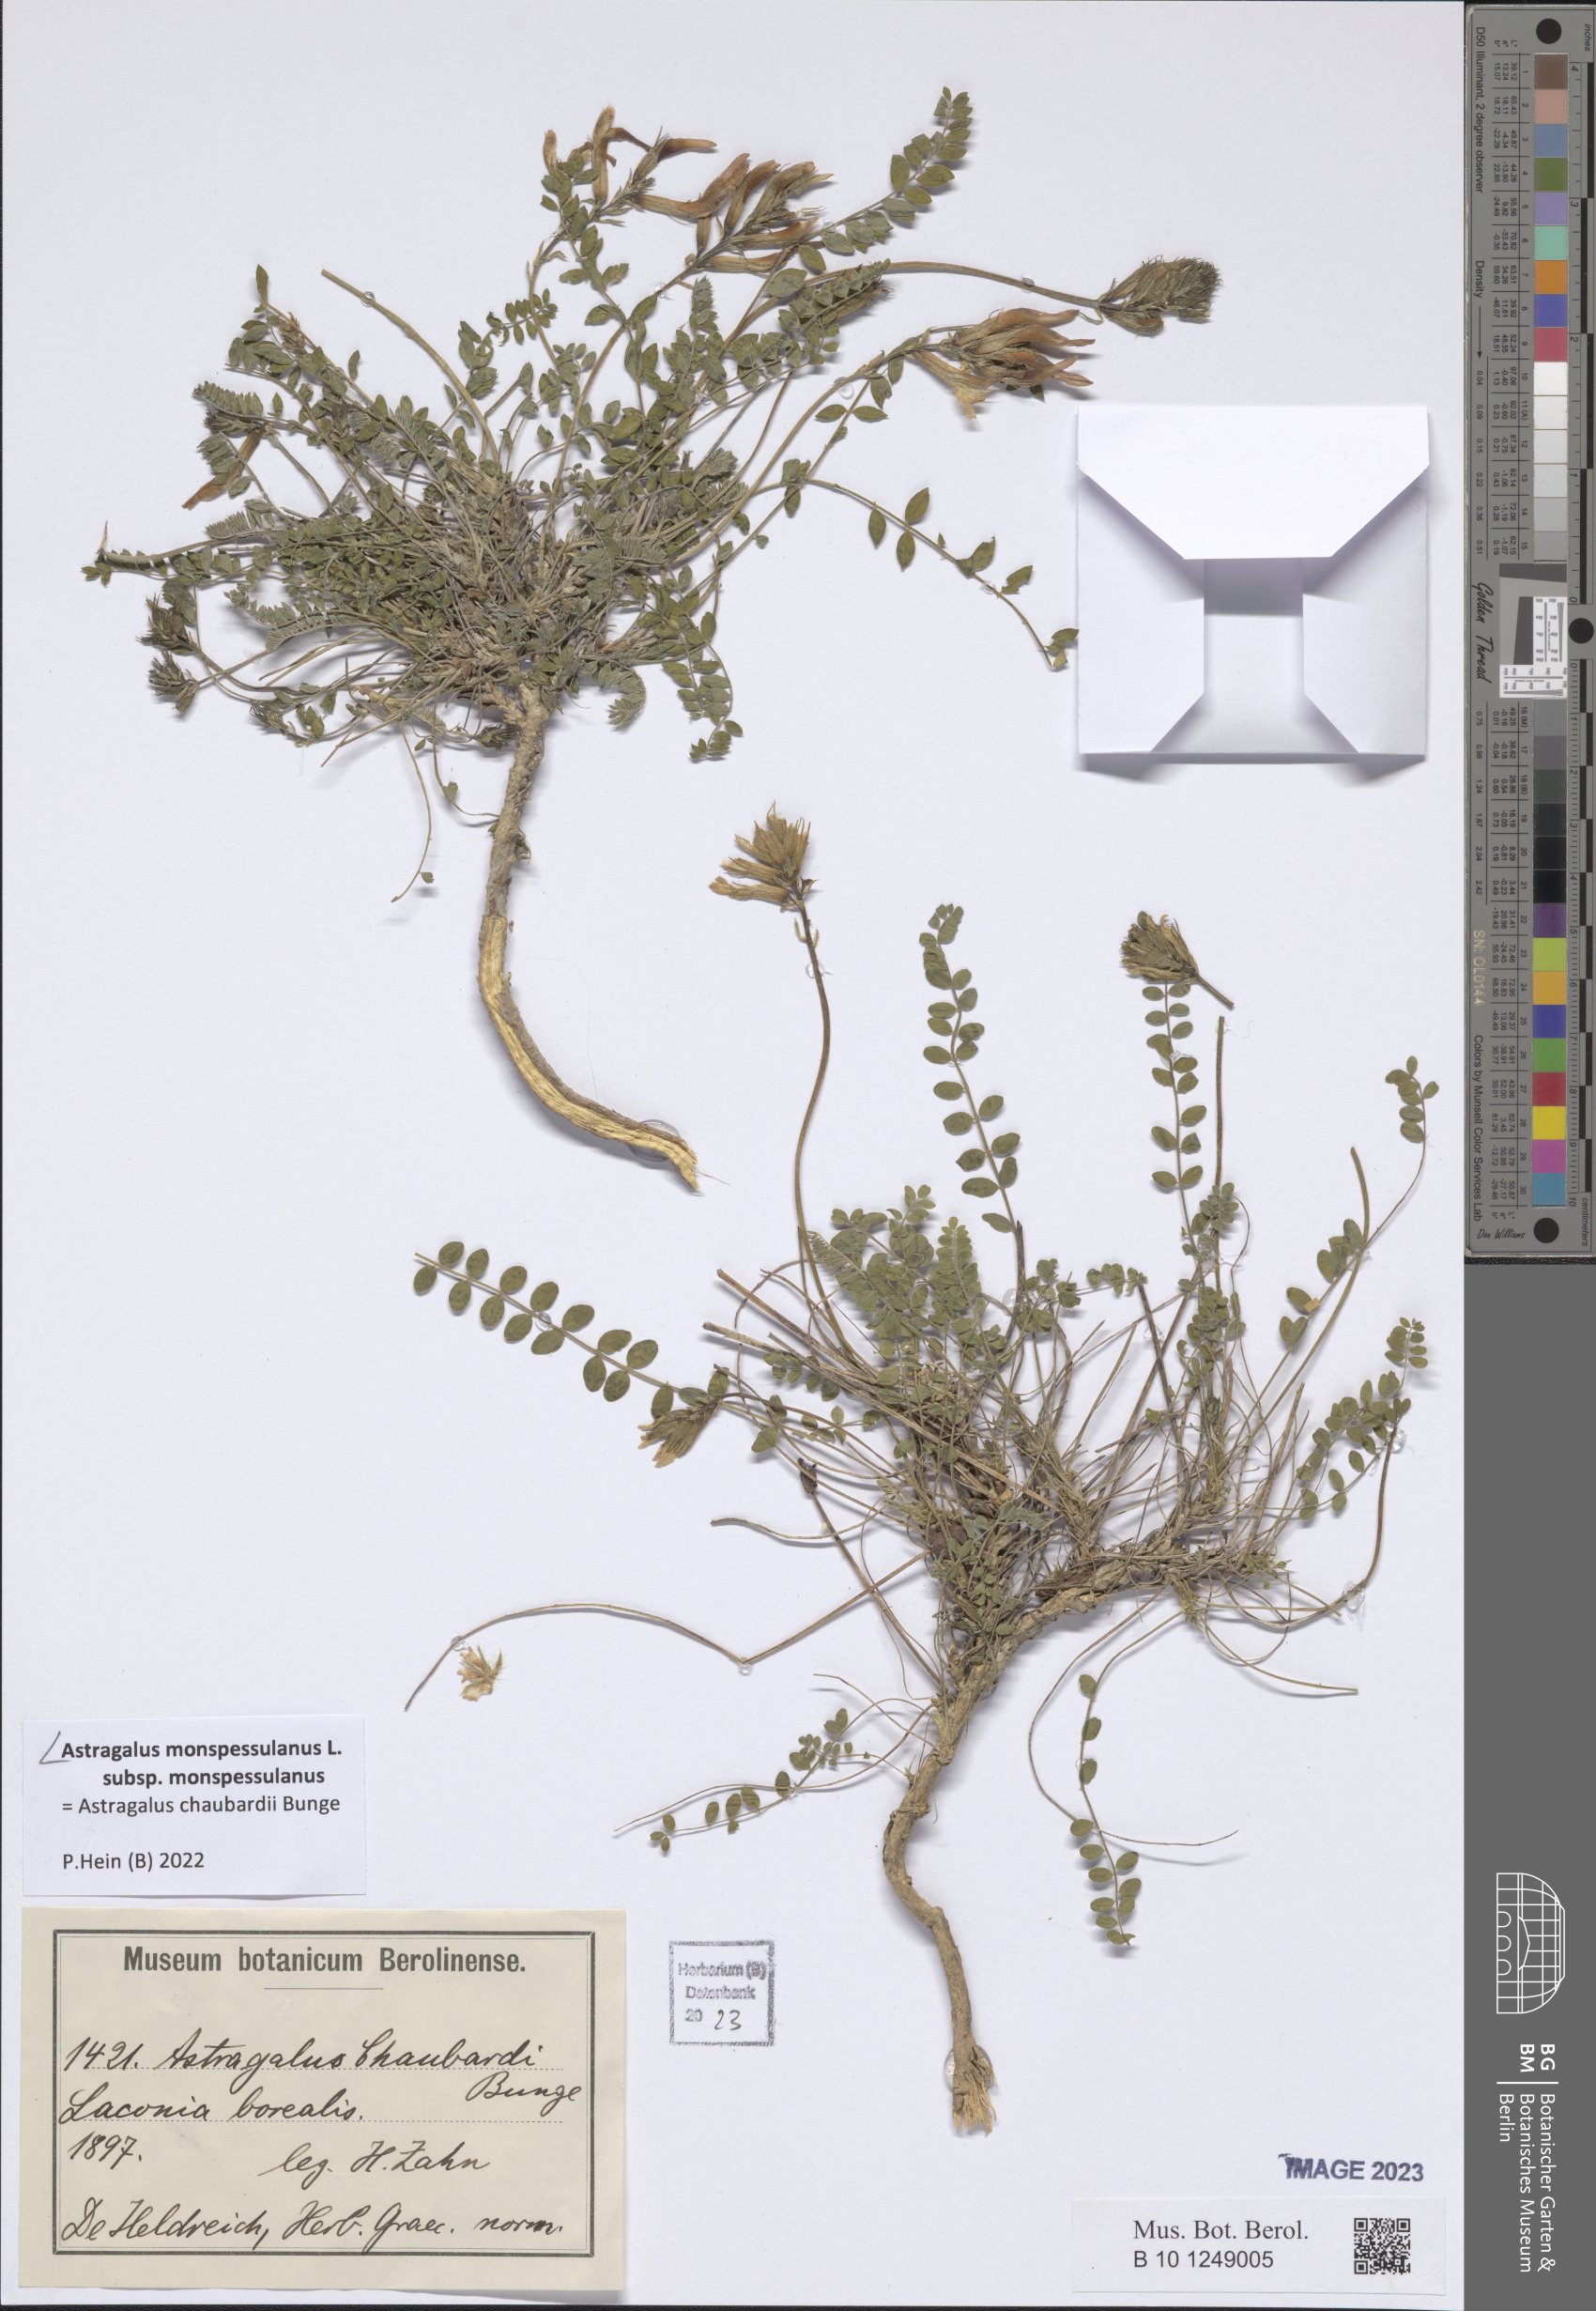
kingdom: Plantae
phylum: Tracheophyta
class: Magnoliopsida
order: Fabales
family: Fabaceae
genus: Astragalus
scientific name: Astragalus monspessulanus
